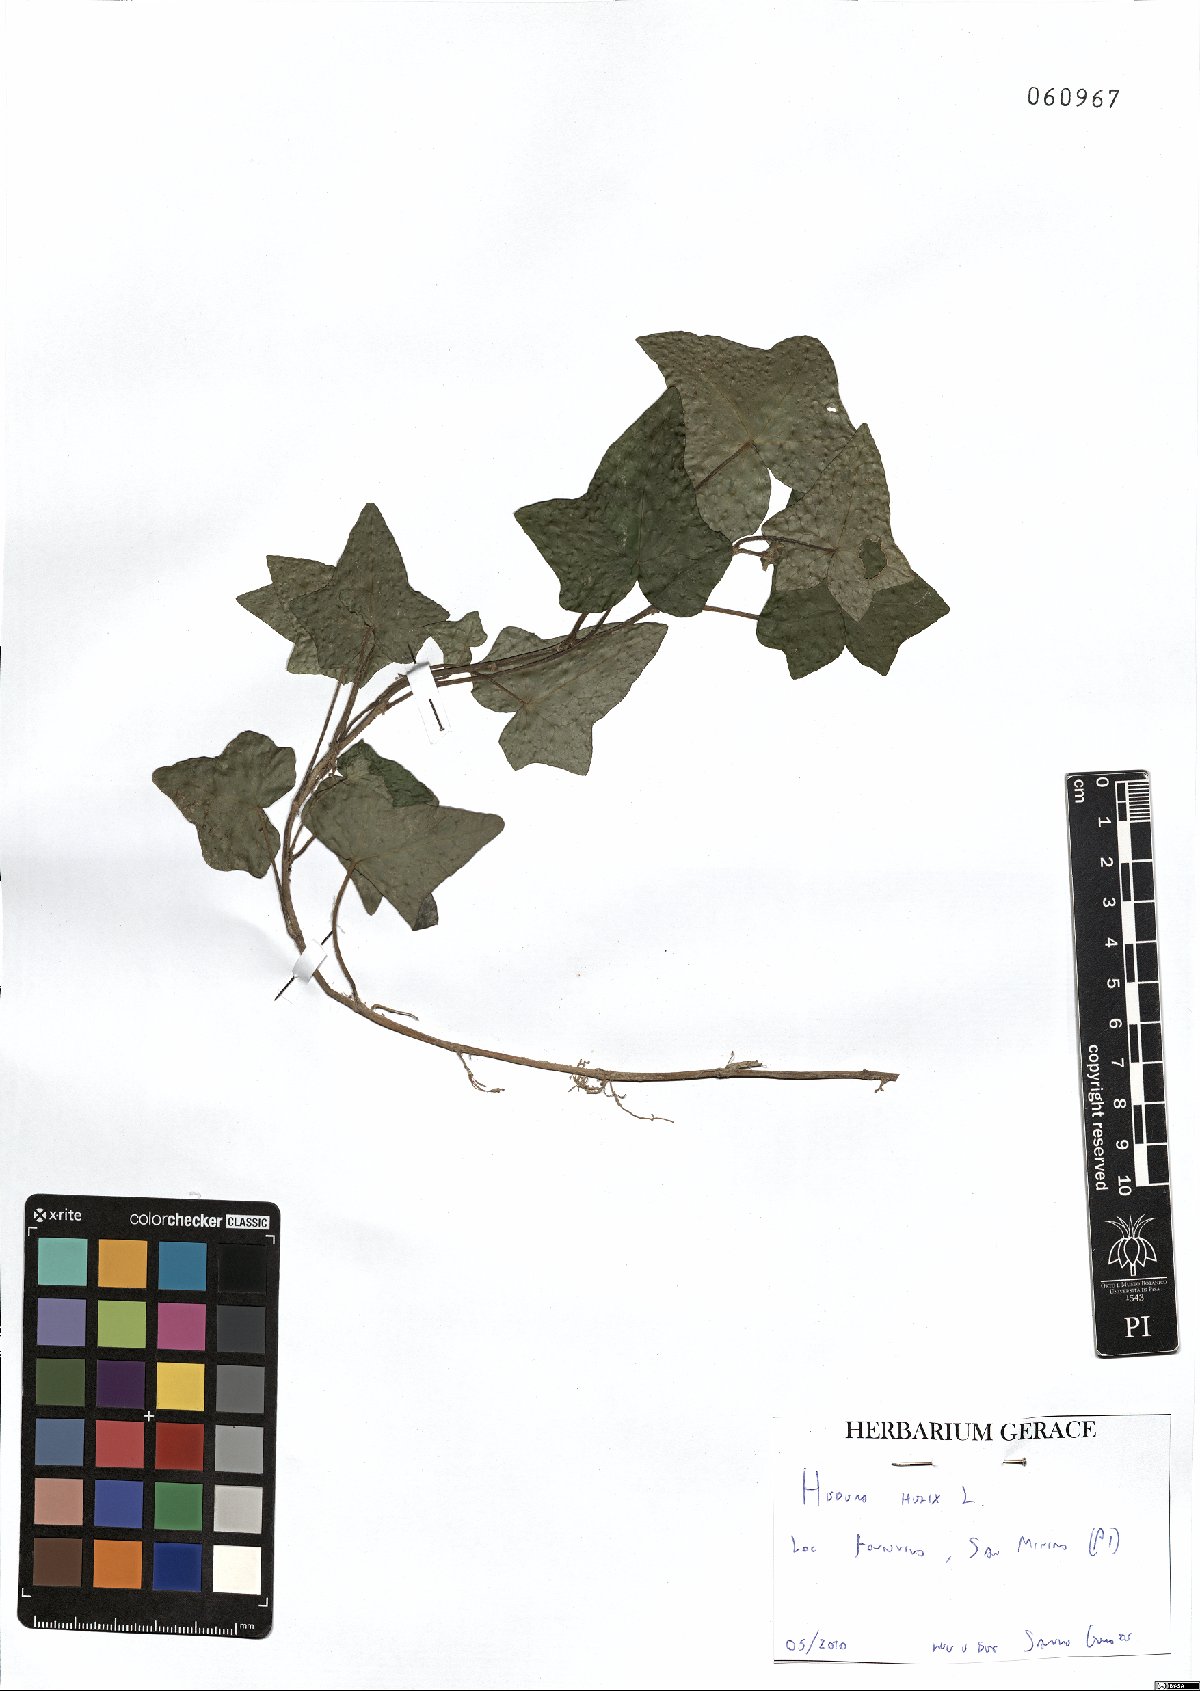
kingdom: Plantae
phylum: Tracheophyta
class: Magnoliopsida
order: Apiales
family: Araliaceae
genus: Hedera
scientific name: Hedera helix
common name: Ivy
